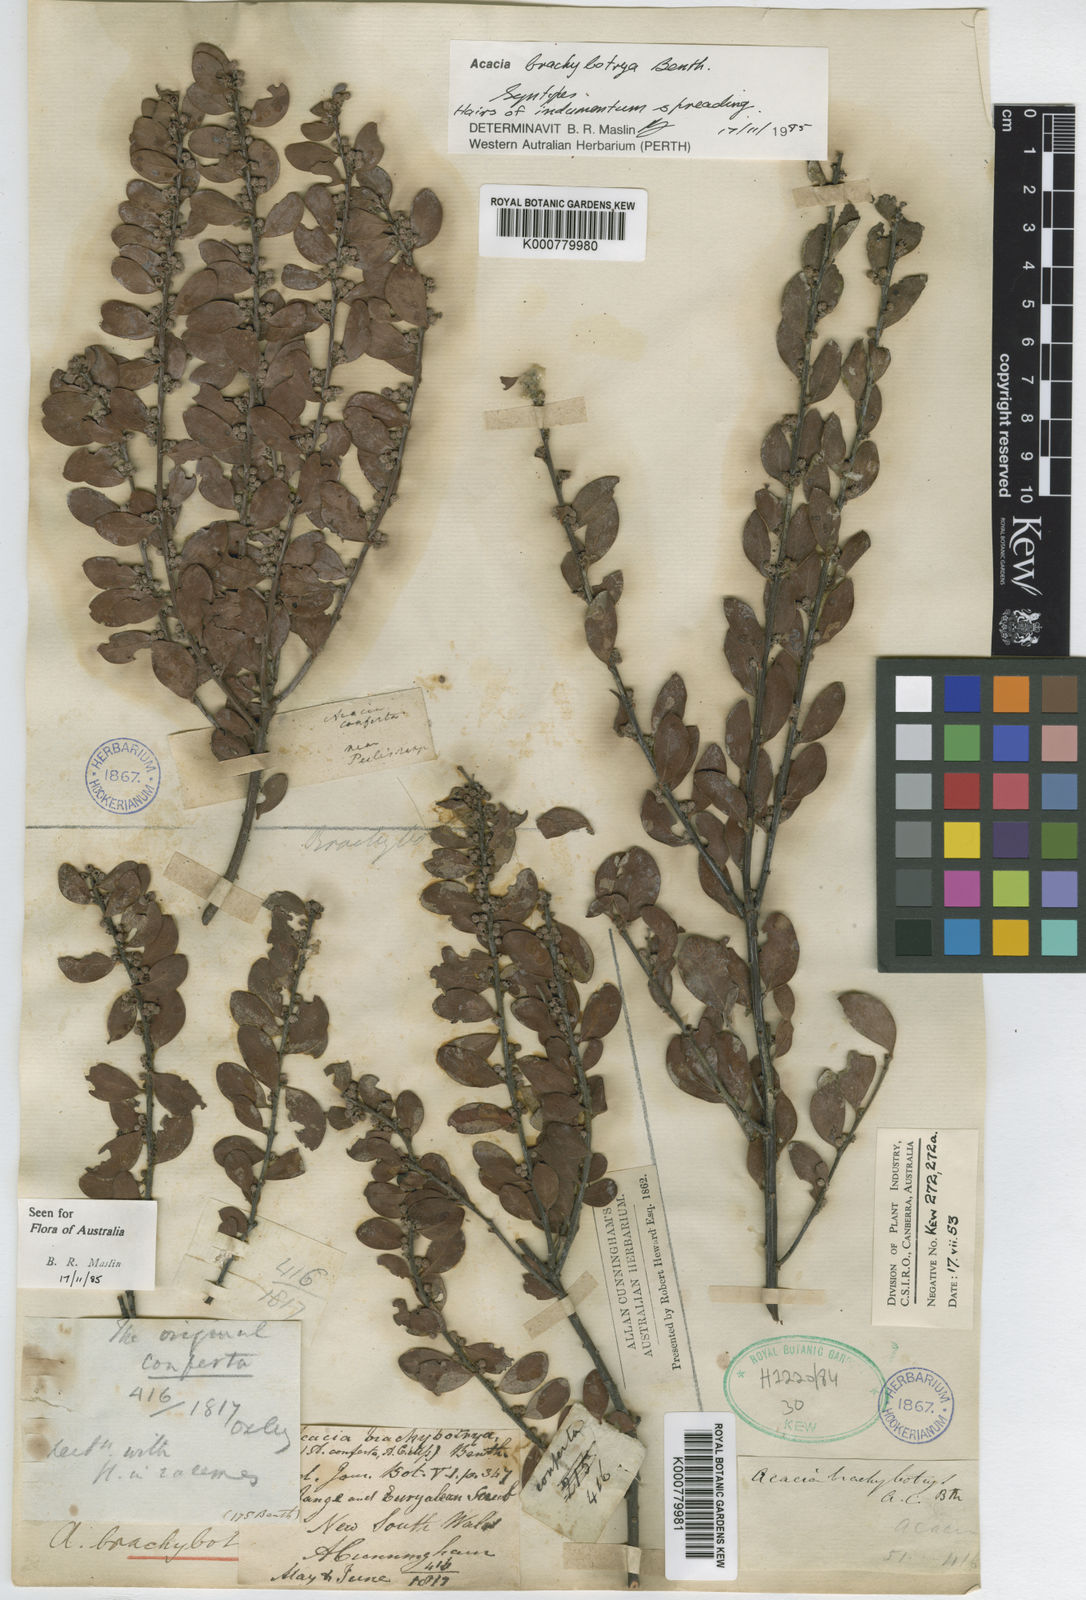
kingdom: Plantae
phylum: Tracheophyta
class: Magnoliopsida
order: Fabales
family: Fabaceae
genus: Acacia
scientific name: Acacia brachybotrya
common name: Grey mulga
